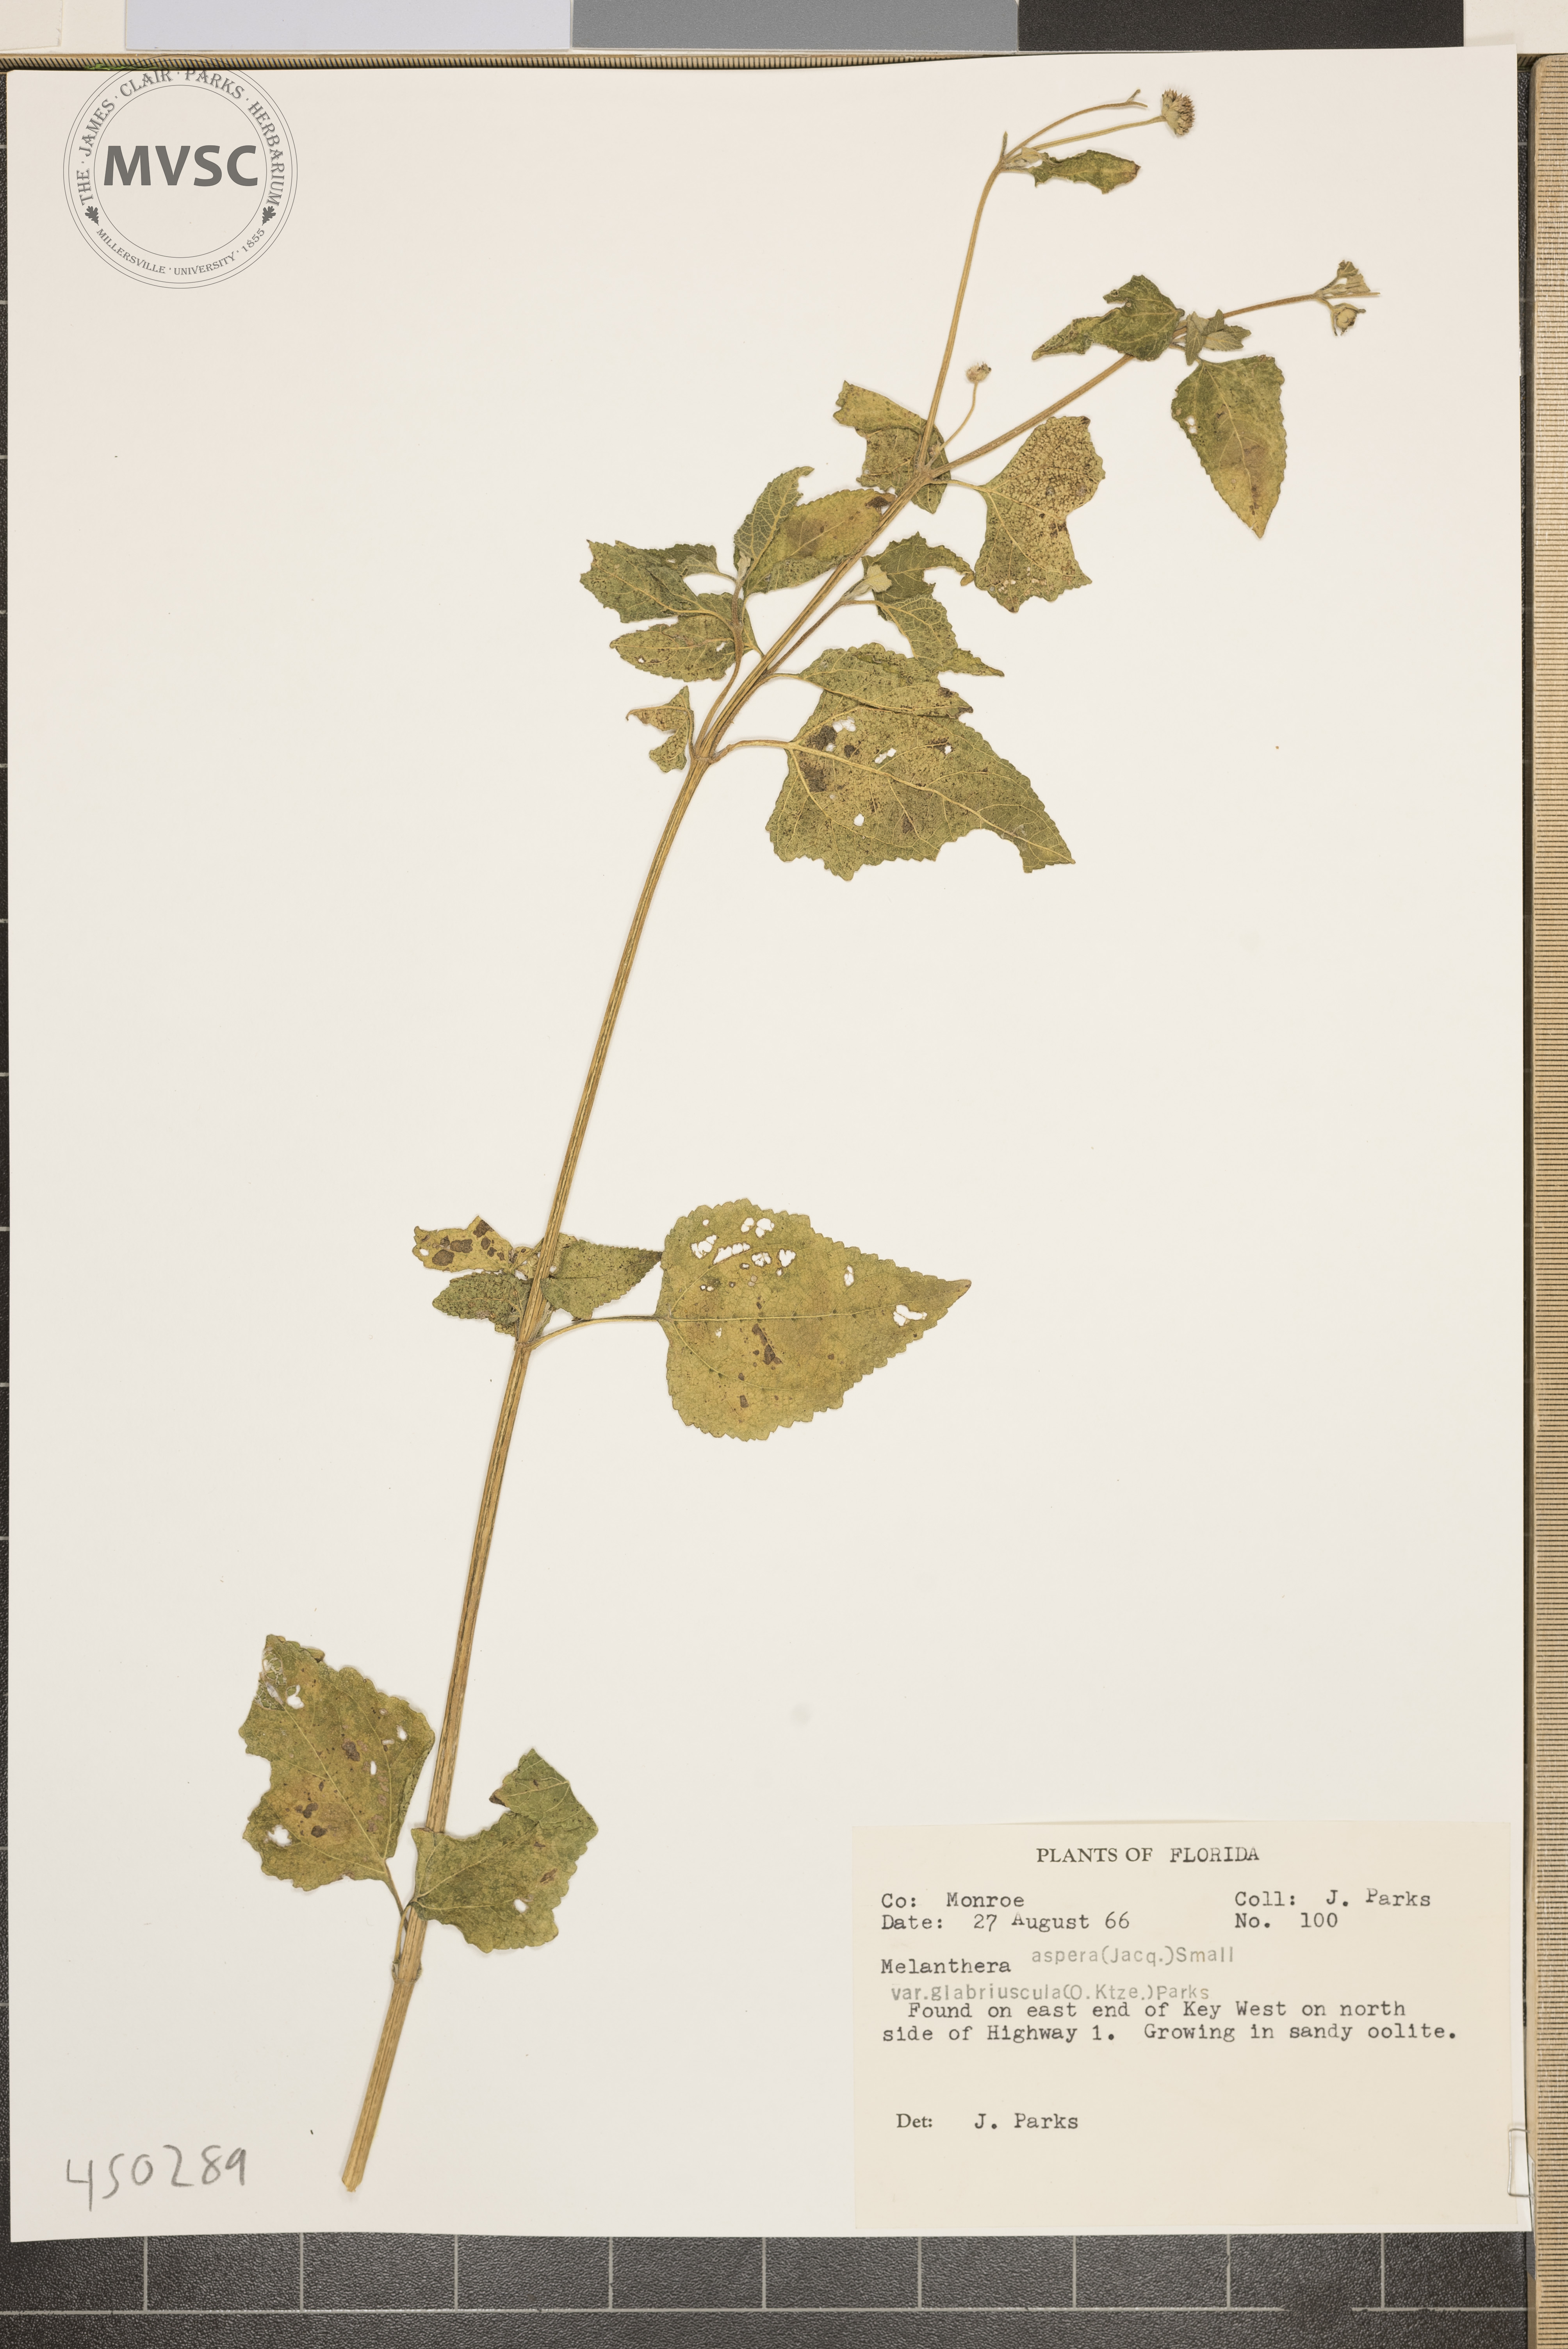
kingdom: Plantae
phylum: Tracheophyta
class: Magnoliopsida
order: Asterales
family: Asteraceae
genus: Melanthera
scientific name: Melanthera aspera
